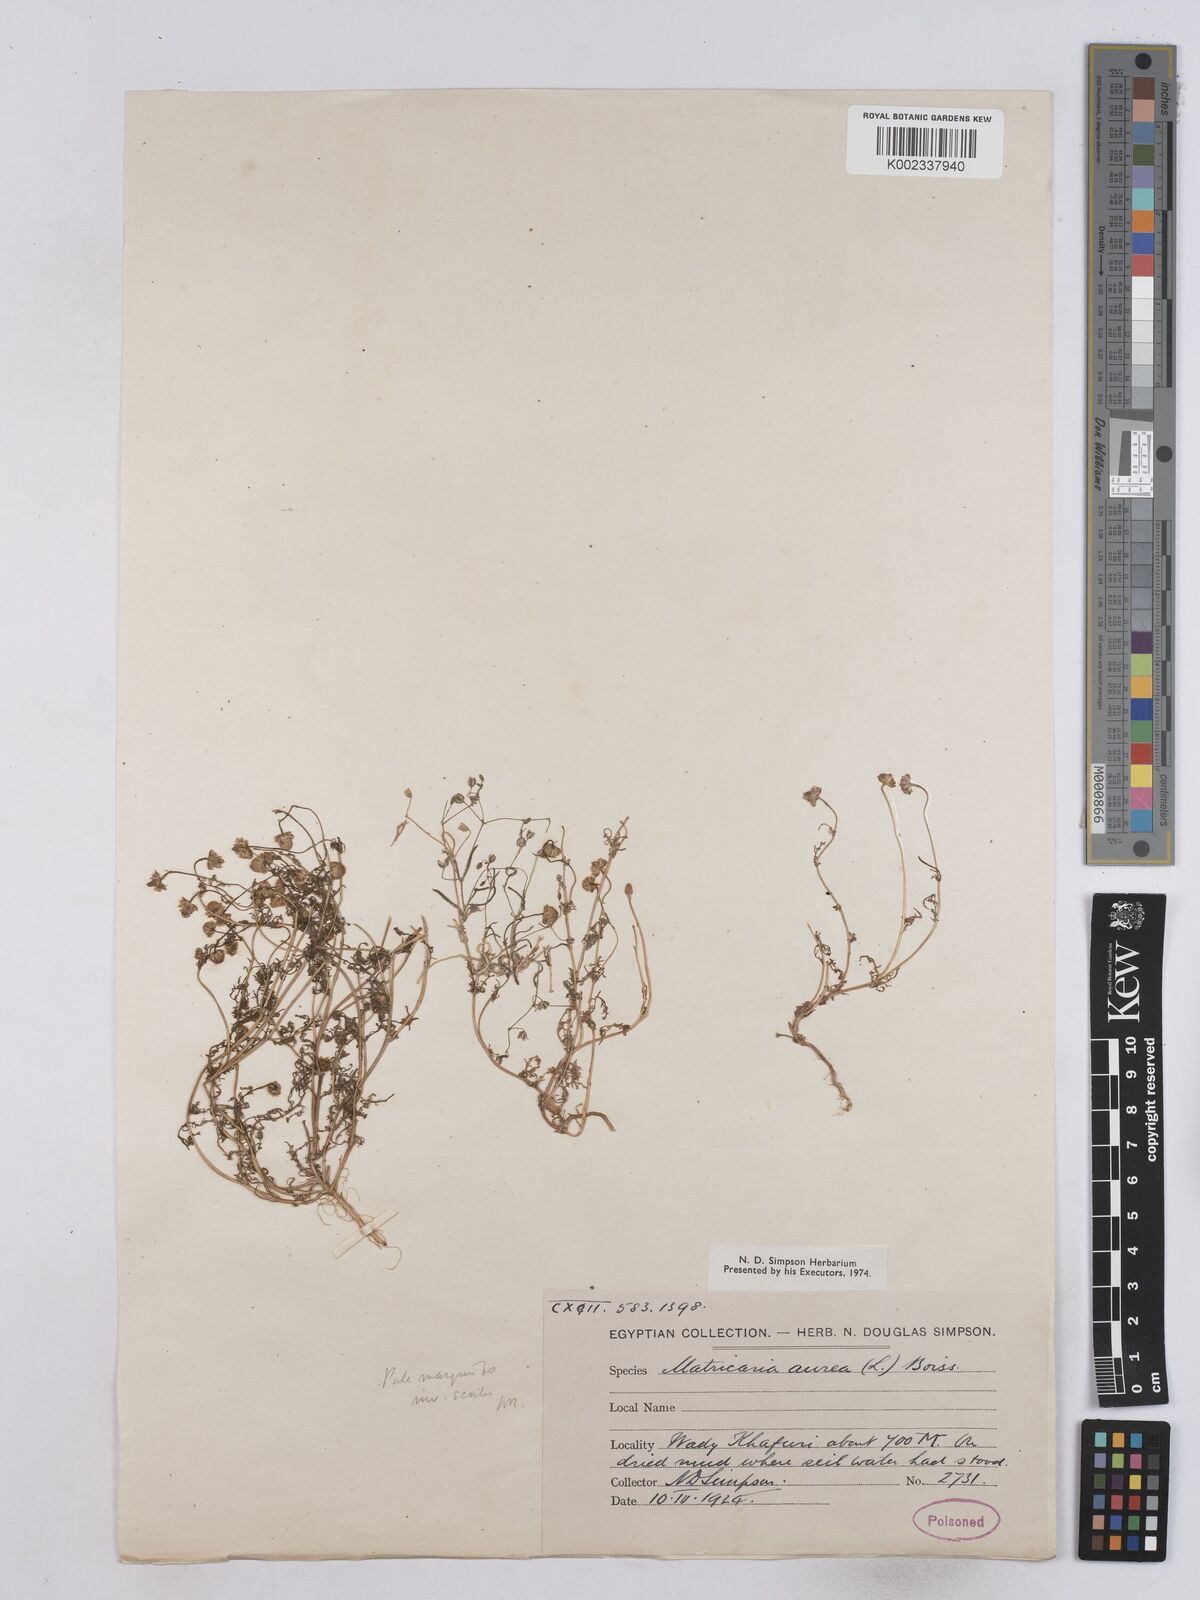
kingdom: Plantae
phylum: Tracheophyta
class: Magnoliopsida
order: Asterales
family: Asteraceae
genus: Matricaria
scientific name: Matricaria aurea
